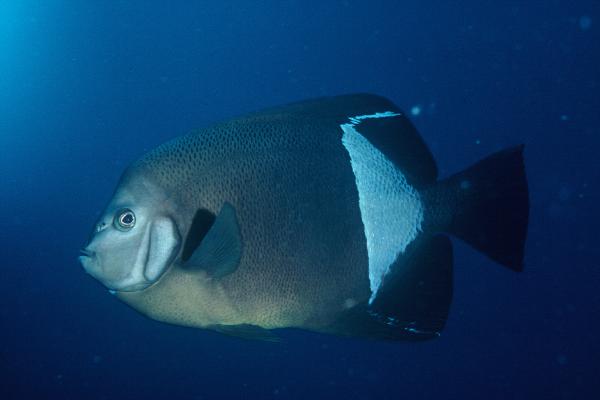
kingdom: Animalia
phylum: Chordata
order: Perciformes
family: Pomacanthidae
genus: Pomacanthus
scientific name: Pomacanthus rhomboides
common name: Old woman
